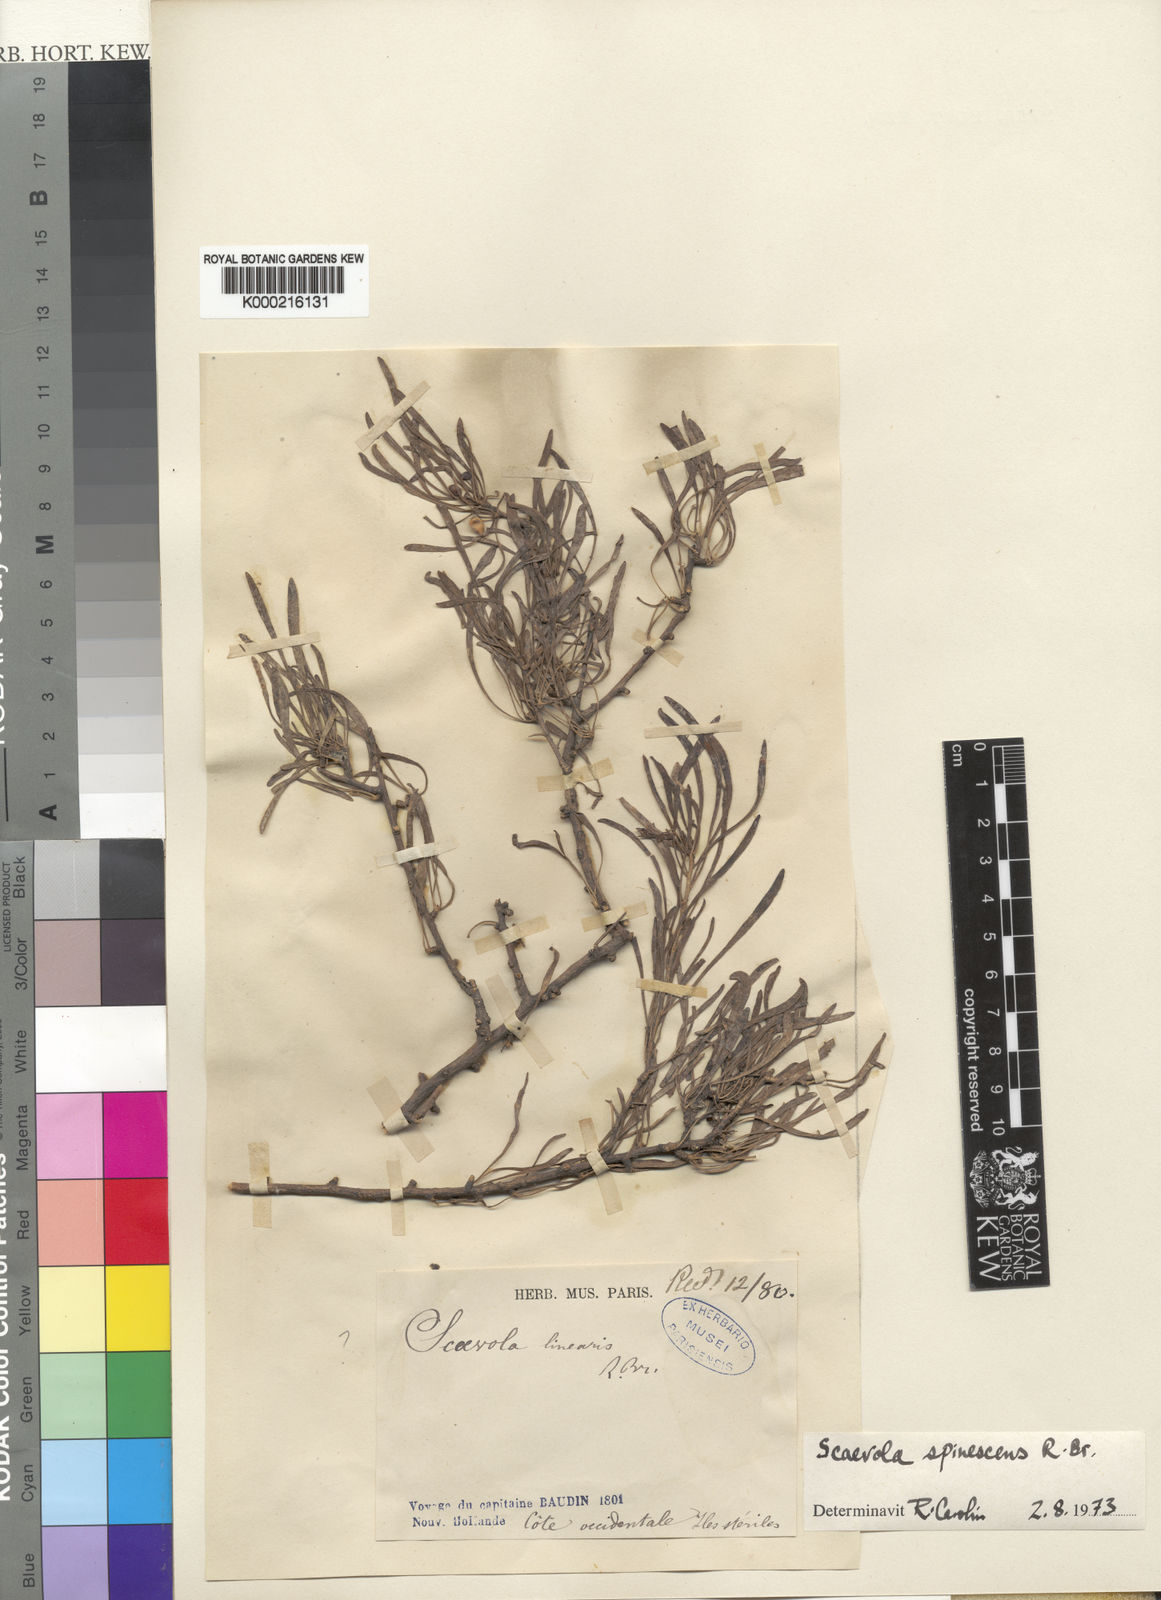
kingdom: Plantae
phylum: Tracheophyta
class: Magnoliopsida
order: Asterales
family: Goodeniaceae
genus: Scaevola
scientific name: Scaevola spinescens
